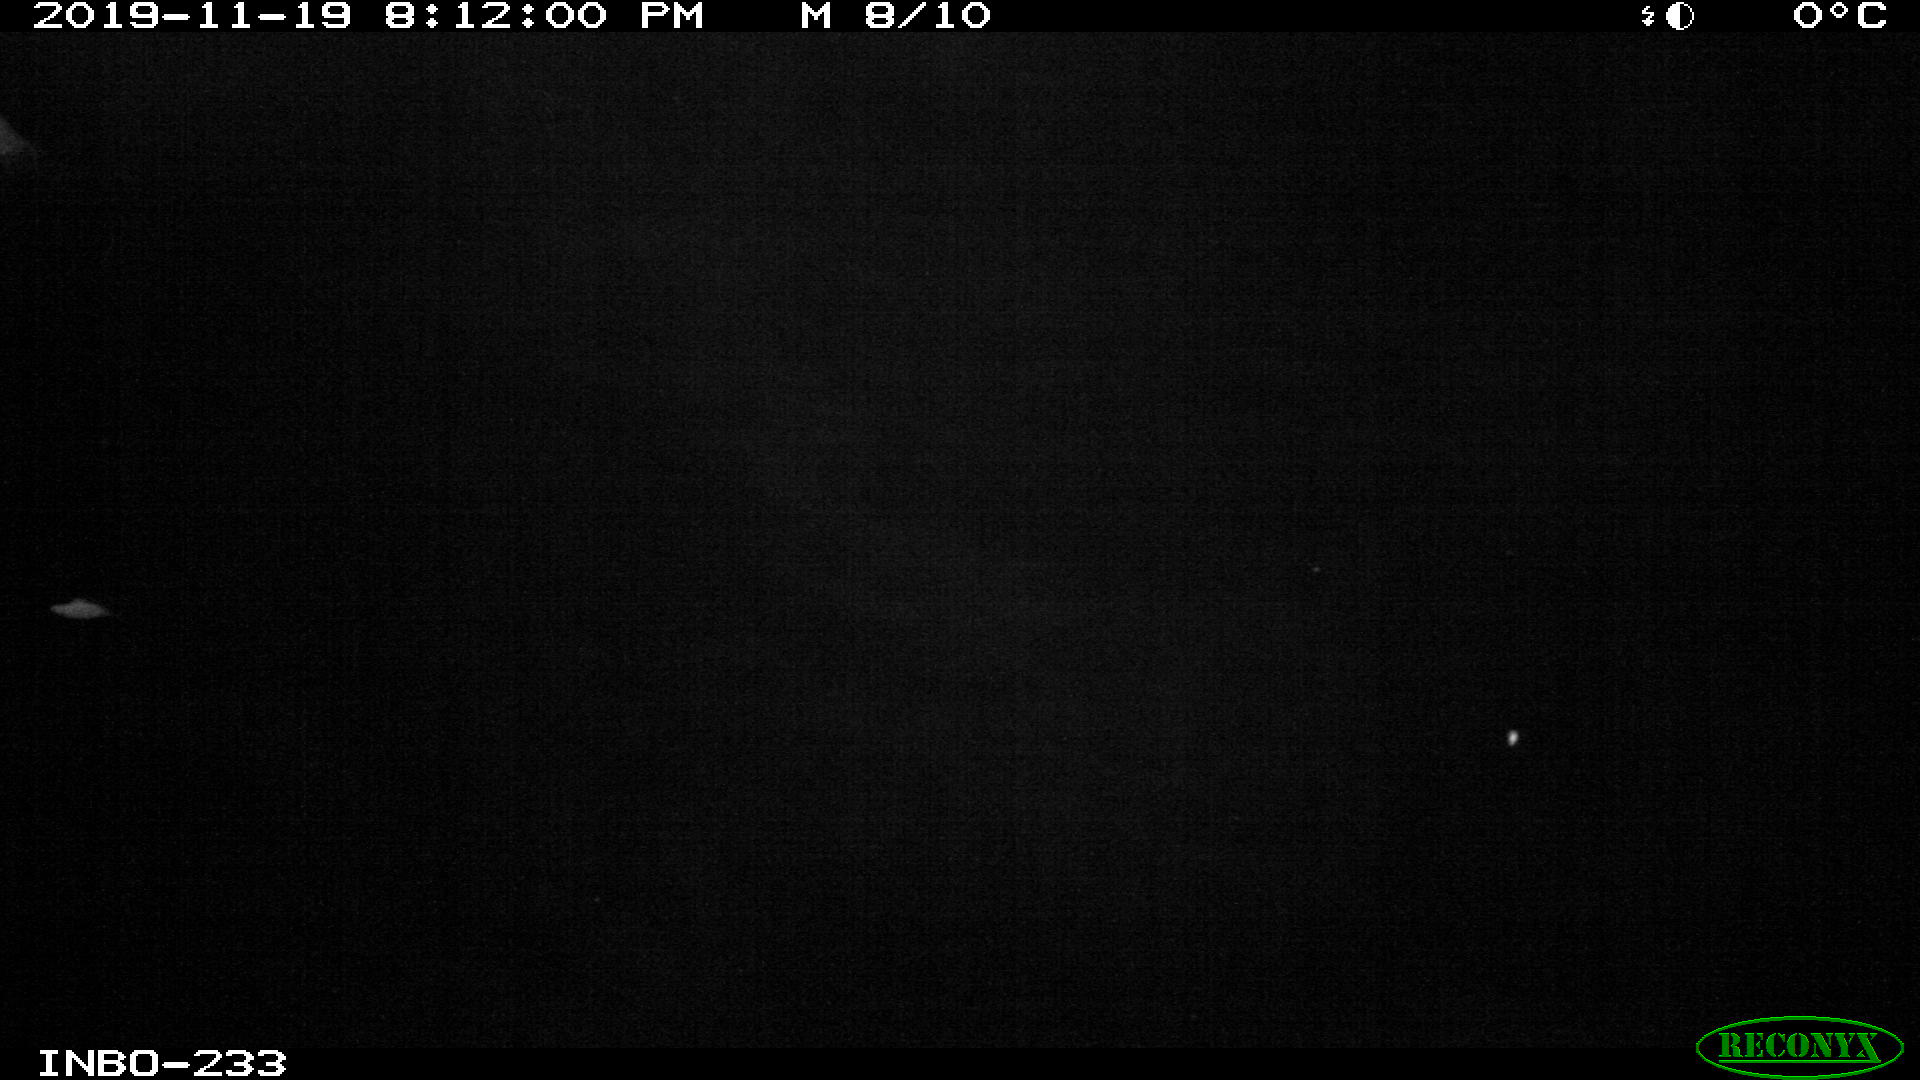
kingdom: Animalia
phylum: Chordata
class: Aves
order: Anseriformes
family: Anatidae
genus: Anas
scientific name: Anas platyrhynchos
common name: Mallard
